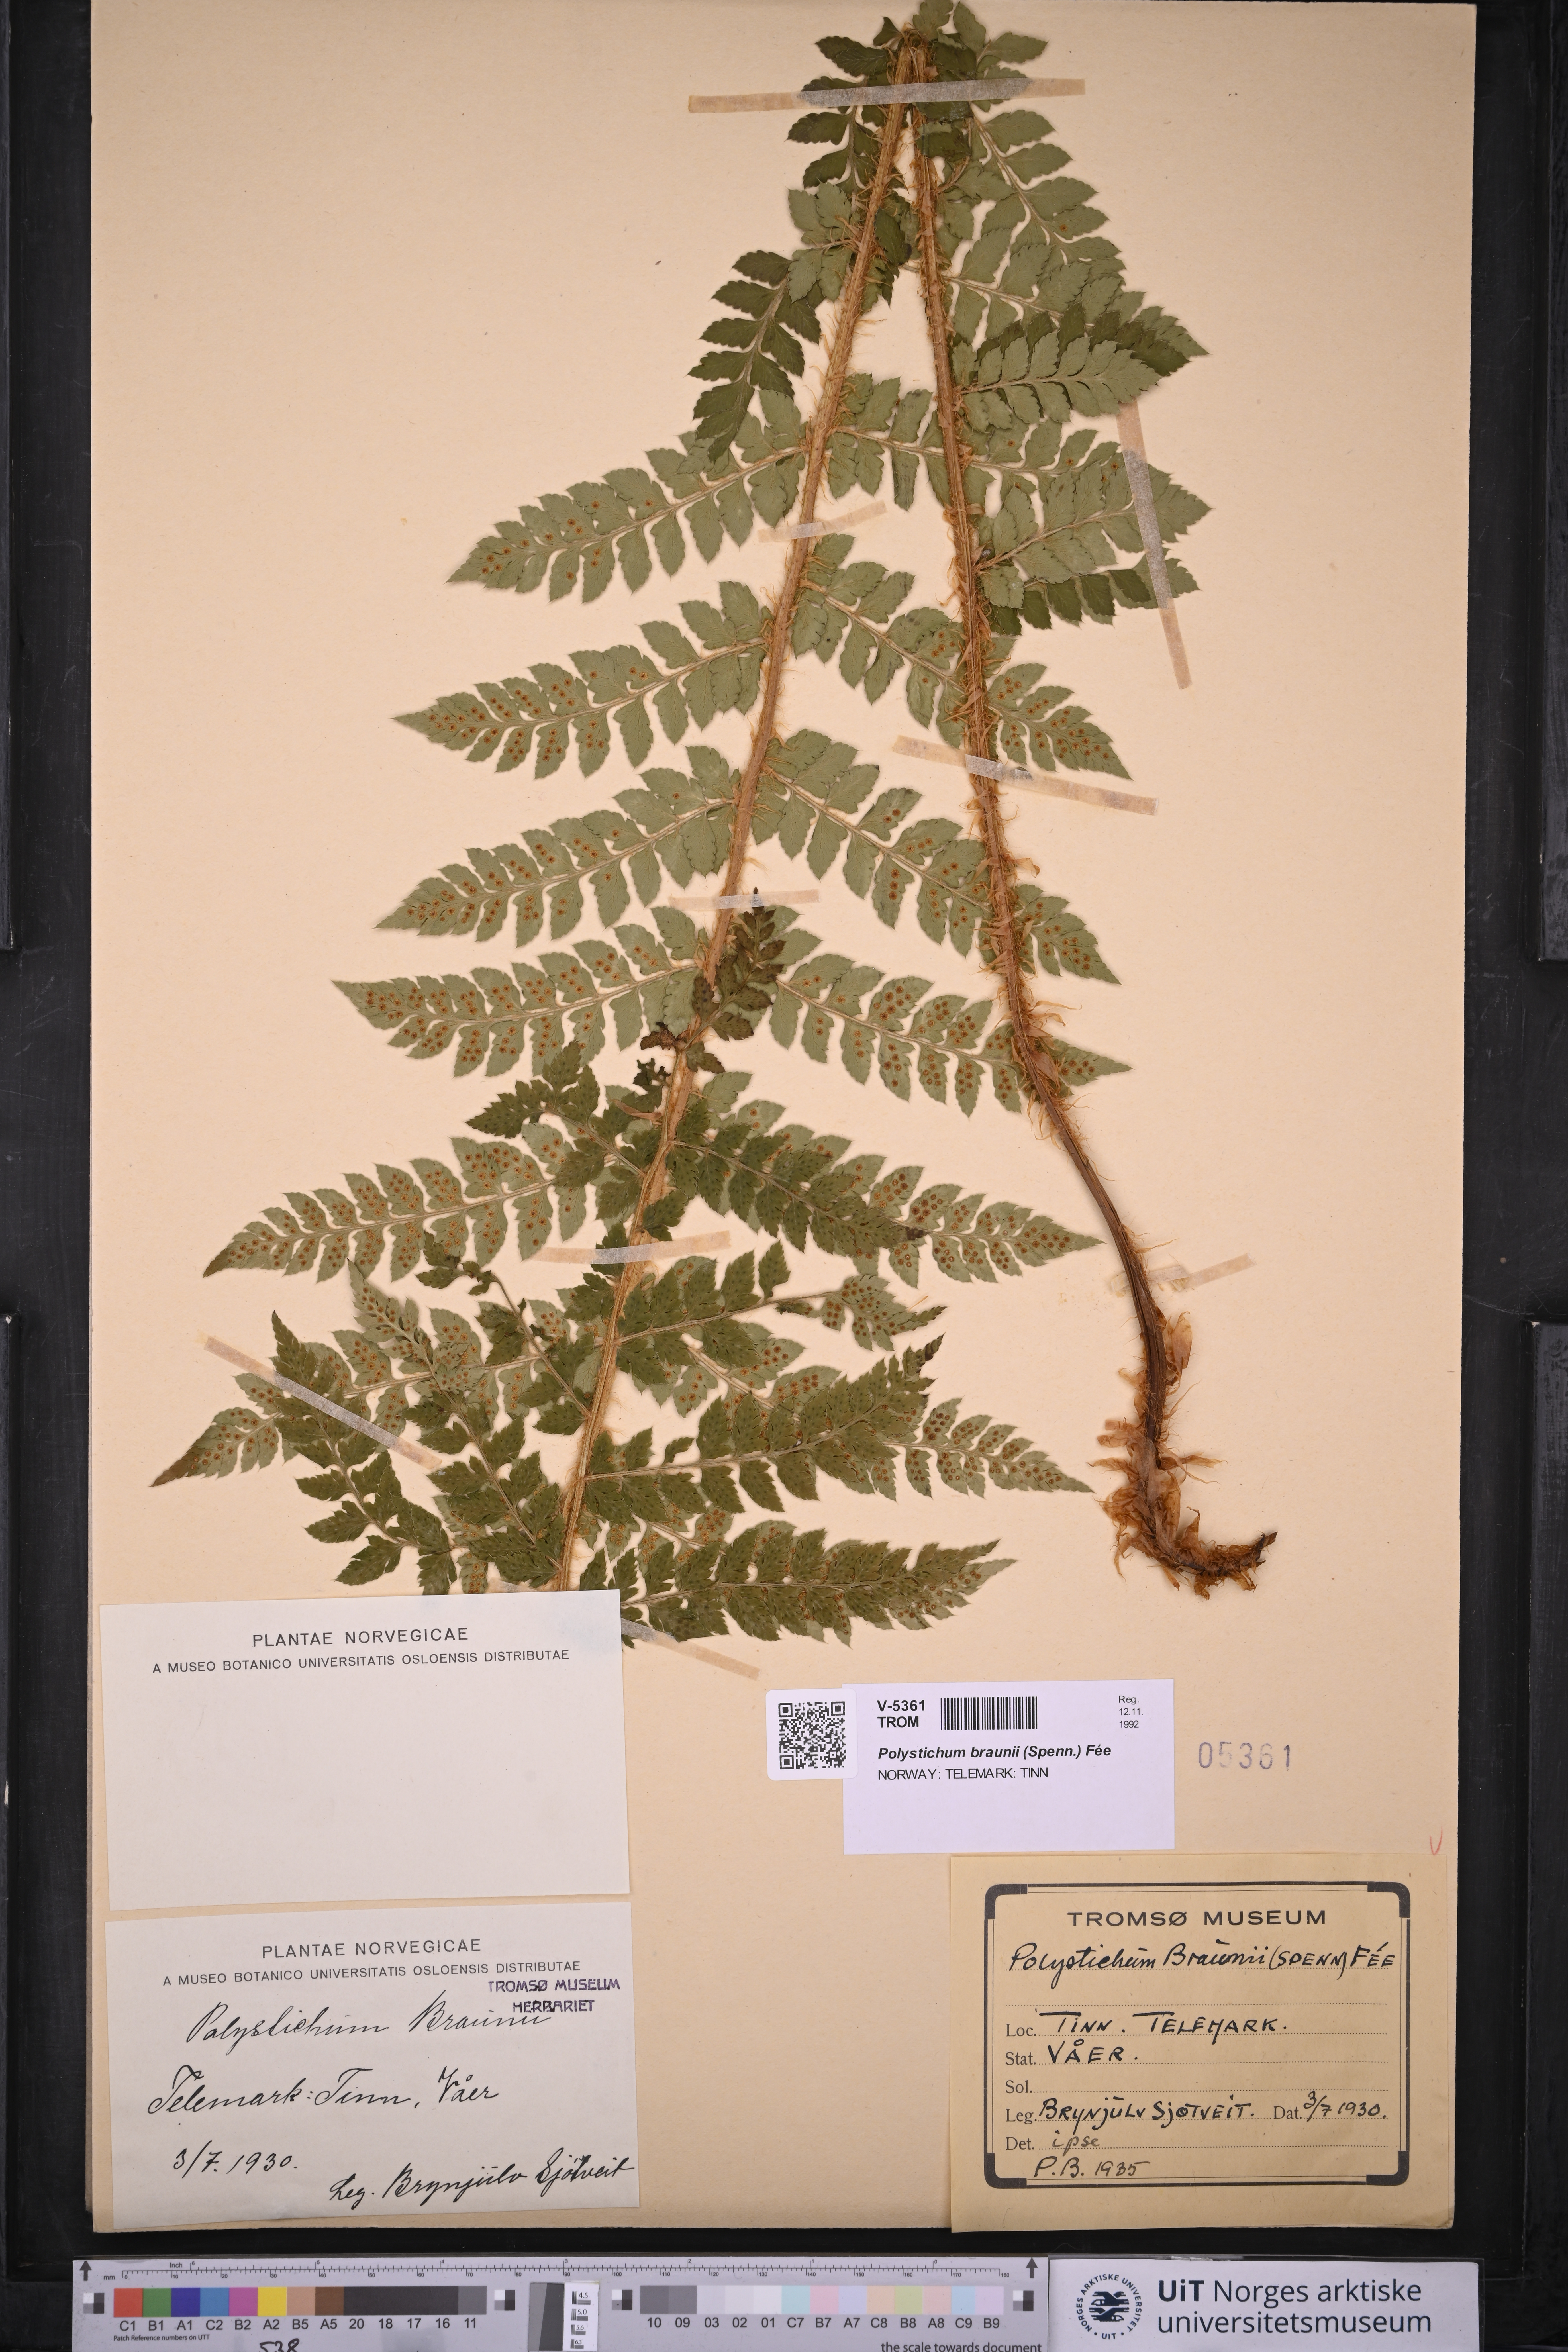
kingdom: Plantae
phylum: Tracheophyta
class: Polypodiopsida
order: Polypodiales
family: Dryopteridaceae
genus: Polystichum
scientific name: Polystichum braunii
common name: Braun's holly fern
